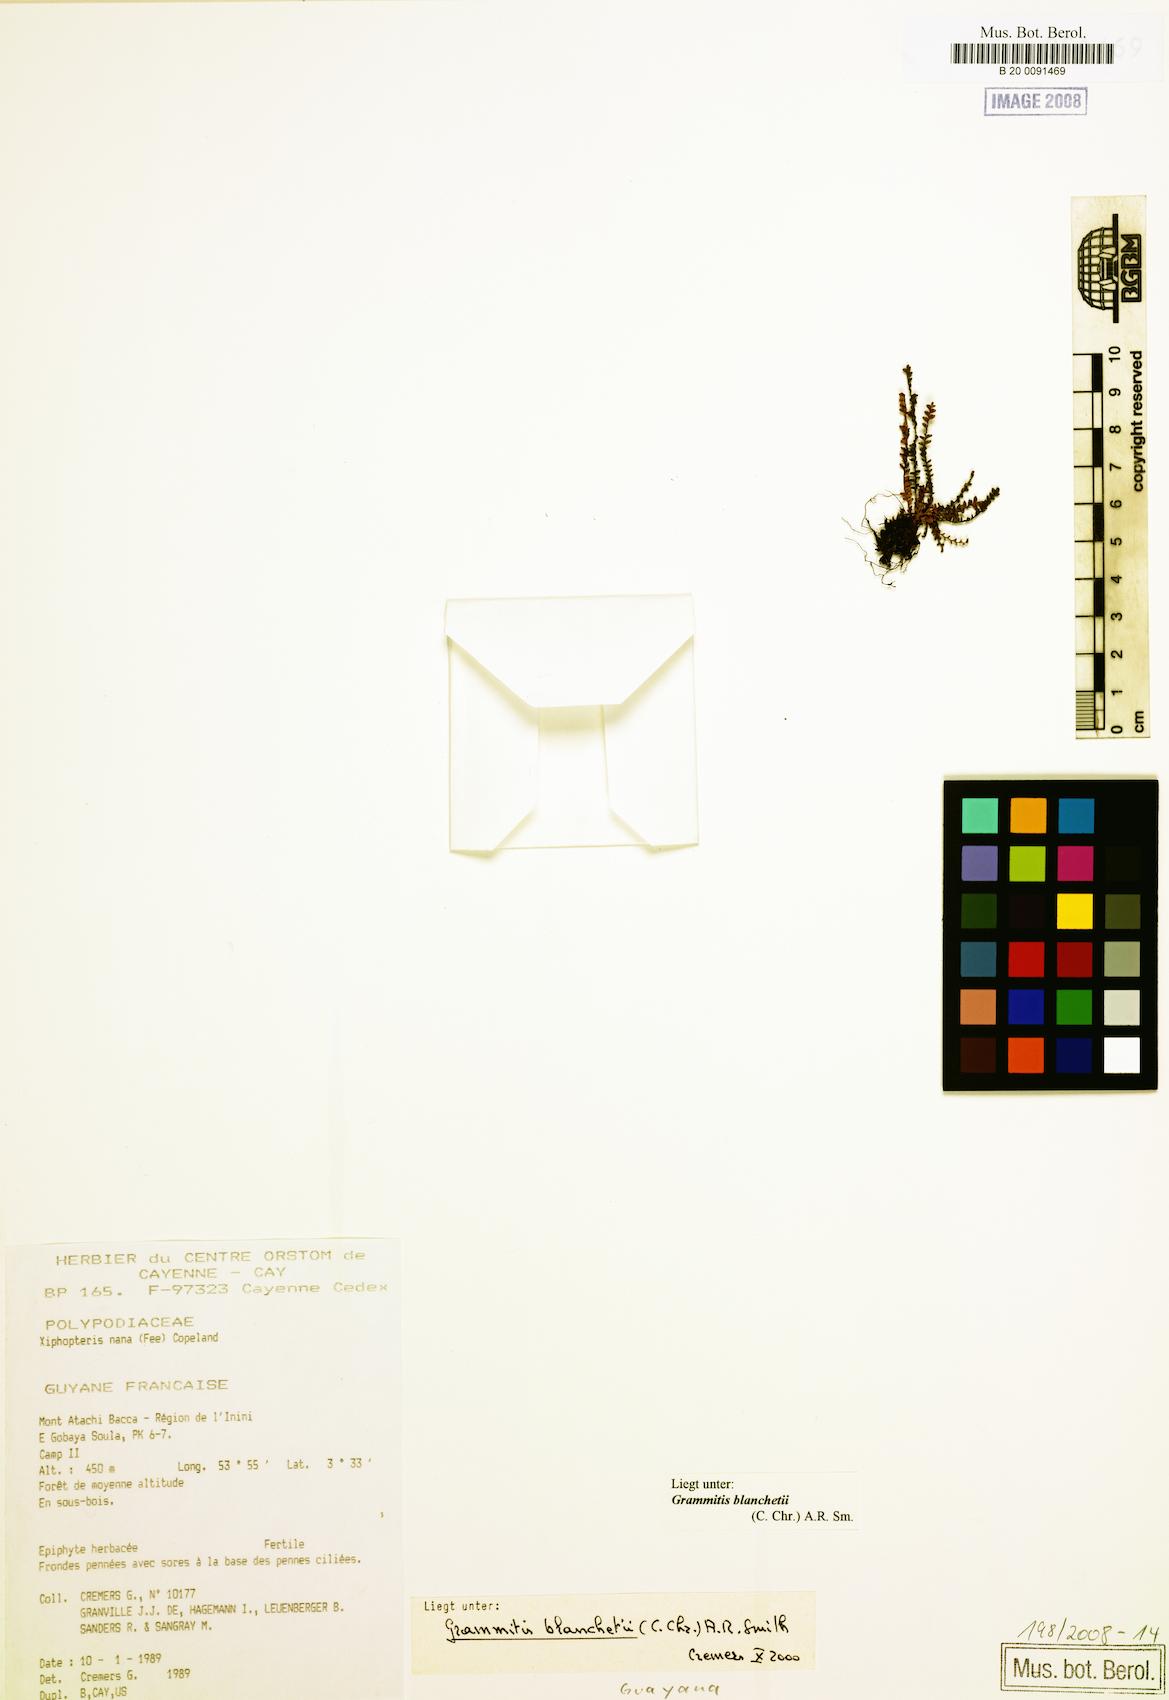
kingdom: Plantae
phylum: Tracheophyta
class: Polypodiopsida
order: Polypodiales
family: Polypodiaceae
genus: Moranopteris
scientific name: Moranopteris nana
